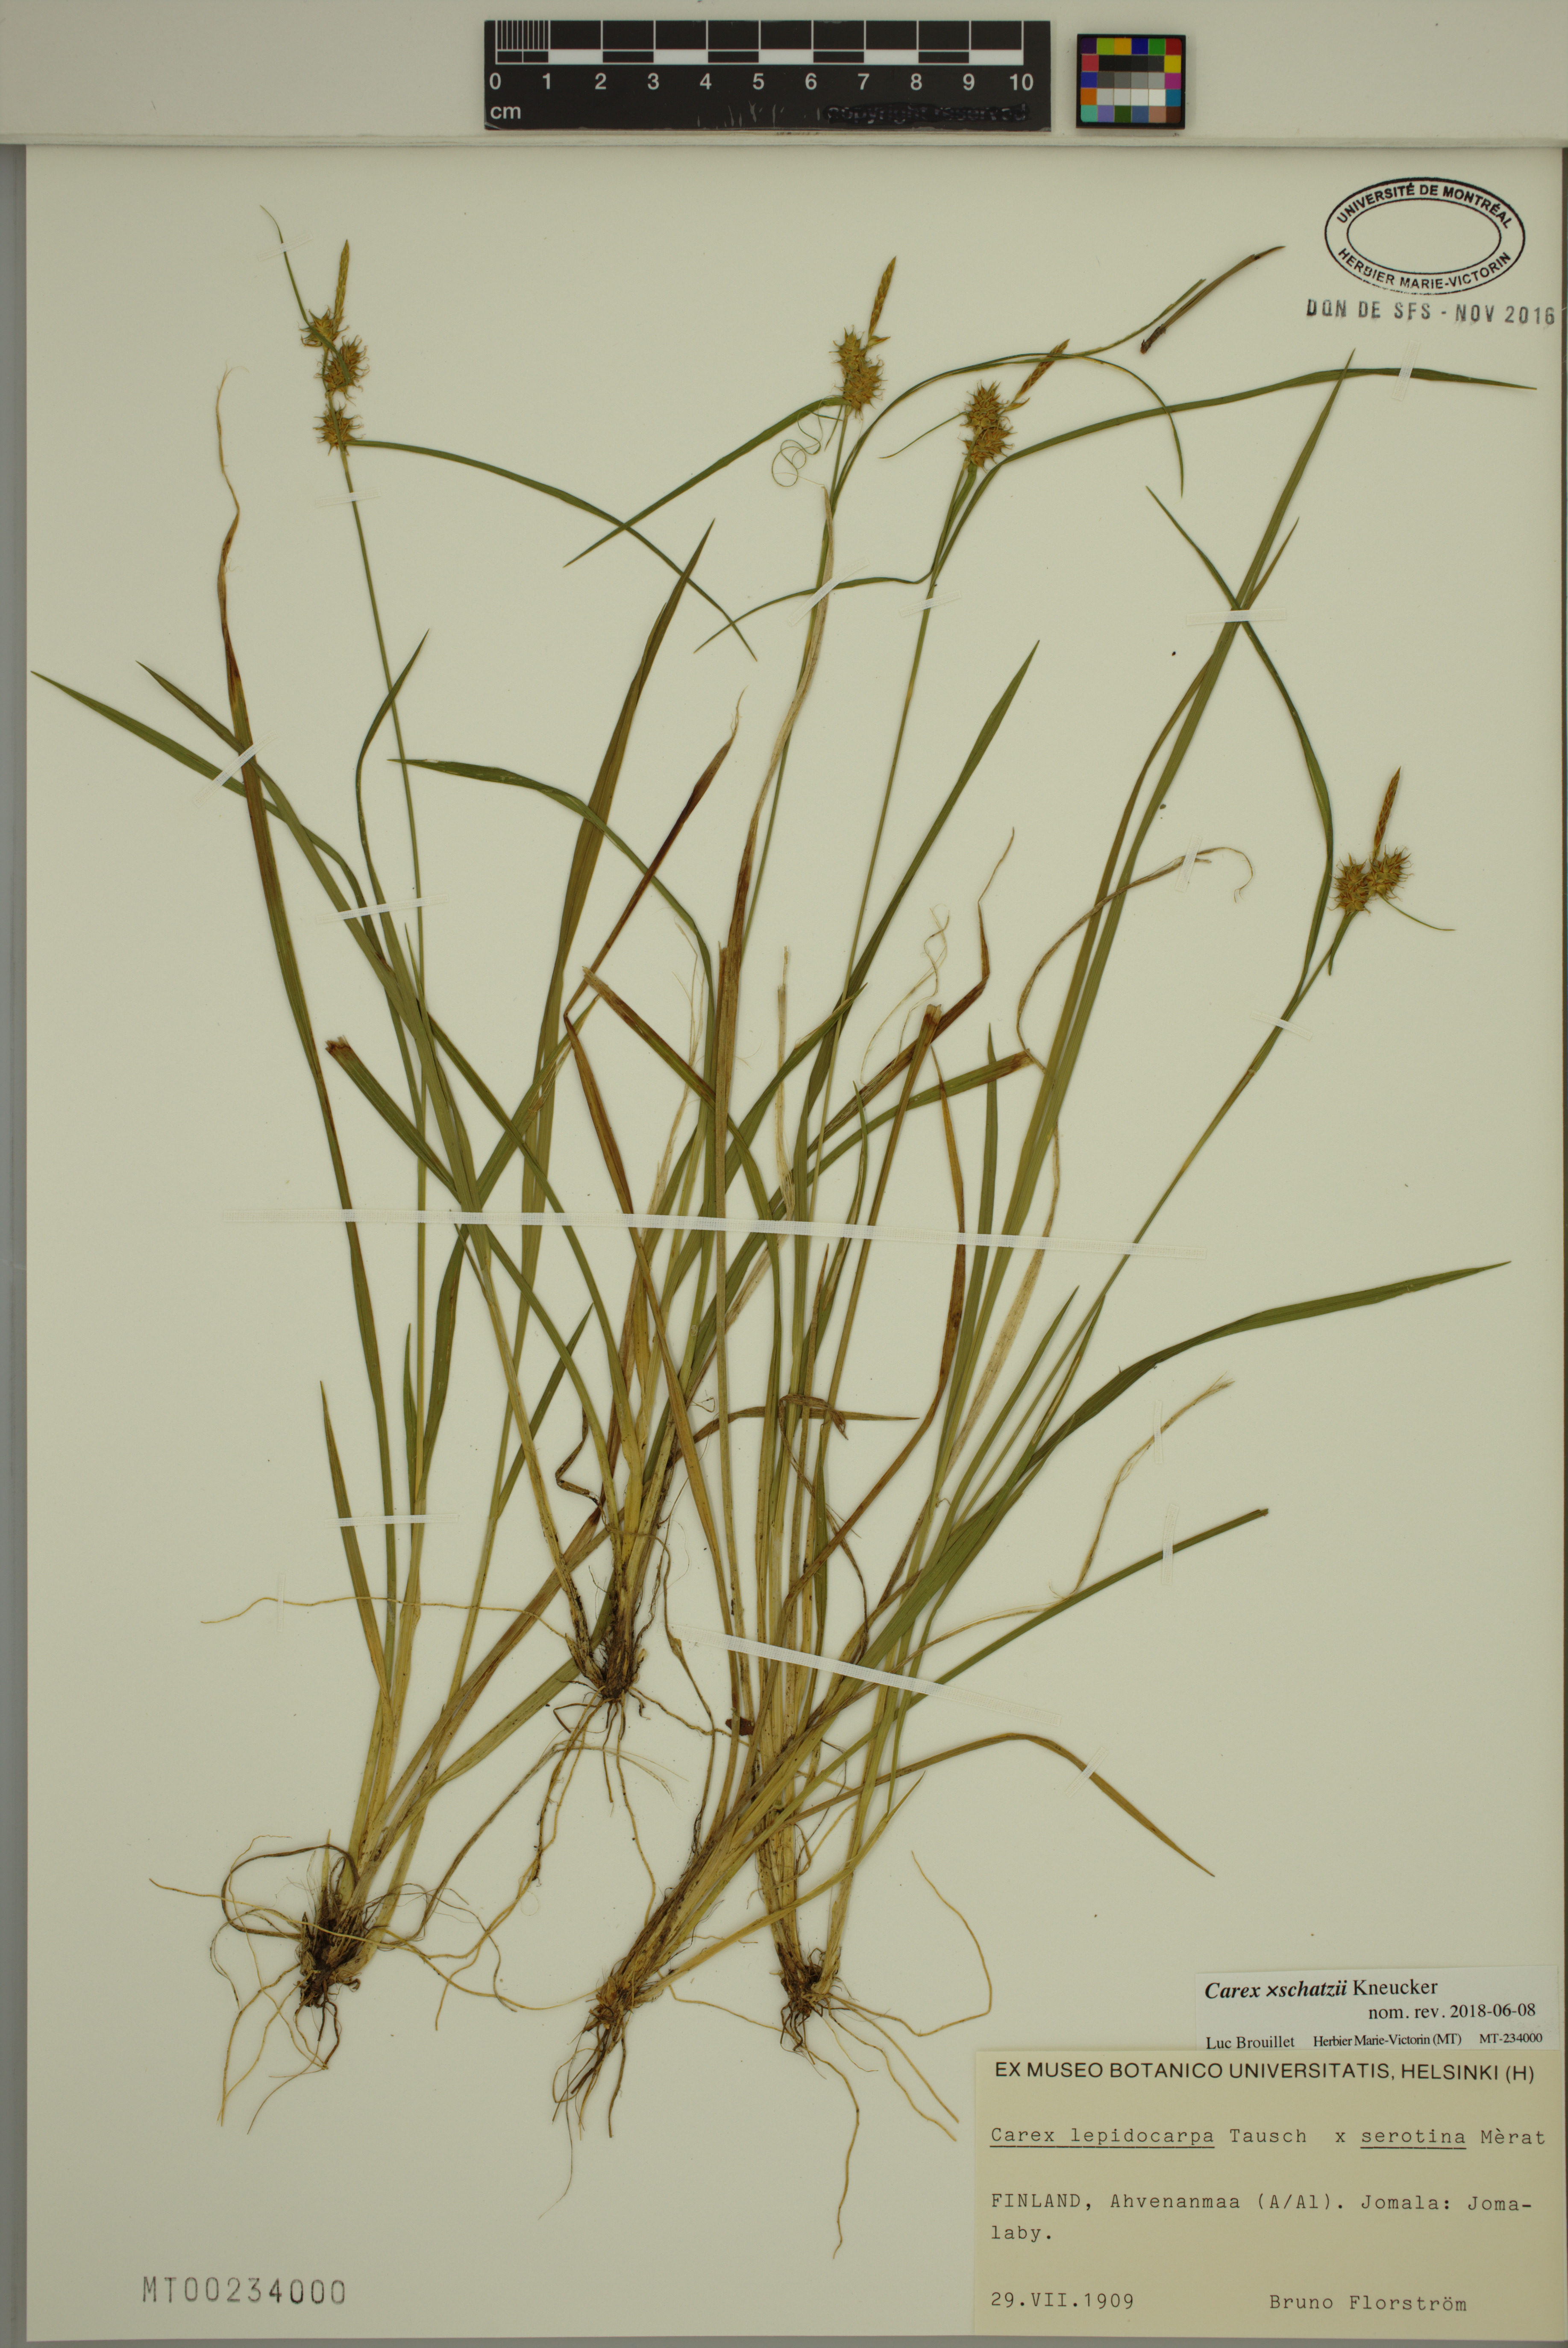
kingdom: Plantae
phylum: Tracheophyta
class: Liliopsida
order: Poales
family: Cyperaceae
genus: Carex
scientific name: Carex schatzii
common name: Schatz's sedge
